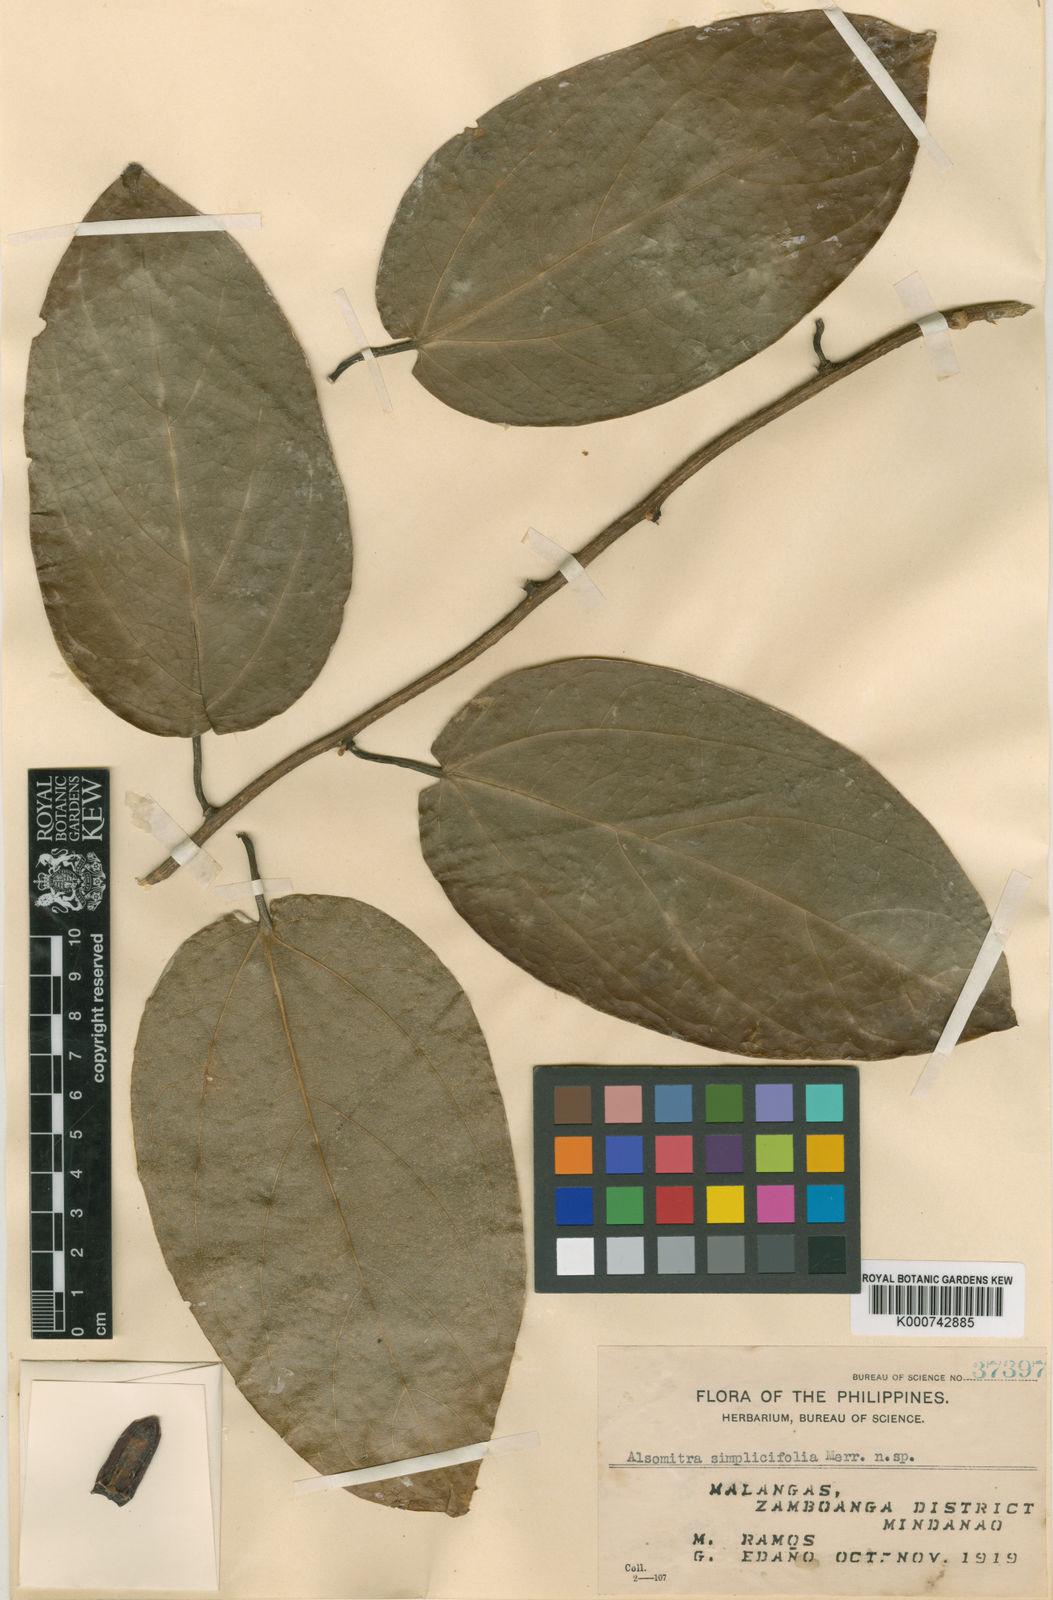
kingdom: Plantae
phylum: Tracheophyta
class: Magnoliopsida
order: Cucurbitales
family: Cucurbitaceae
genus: Zanonia
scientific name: Zanonia indica
